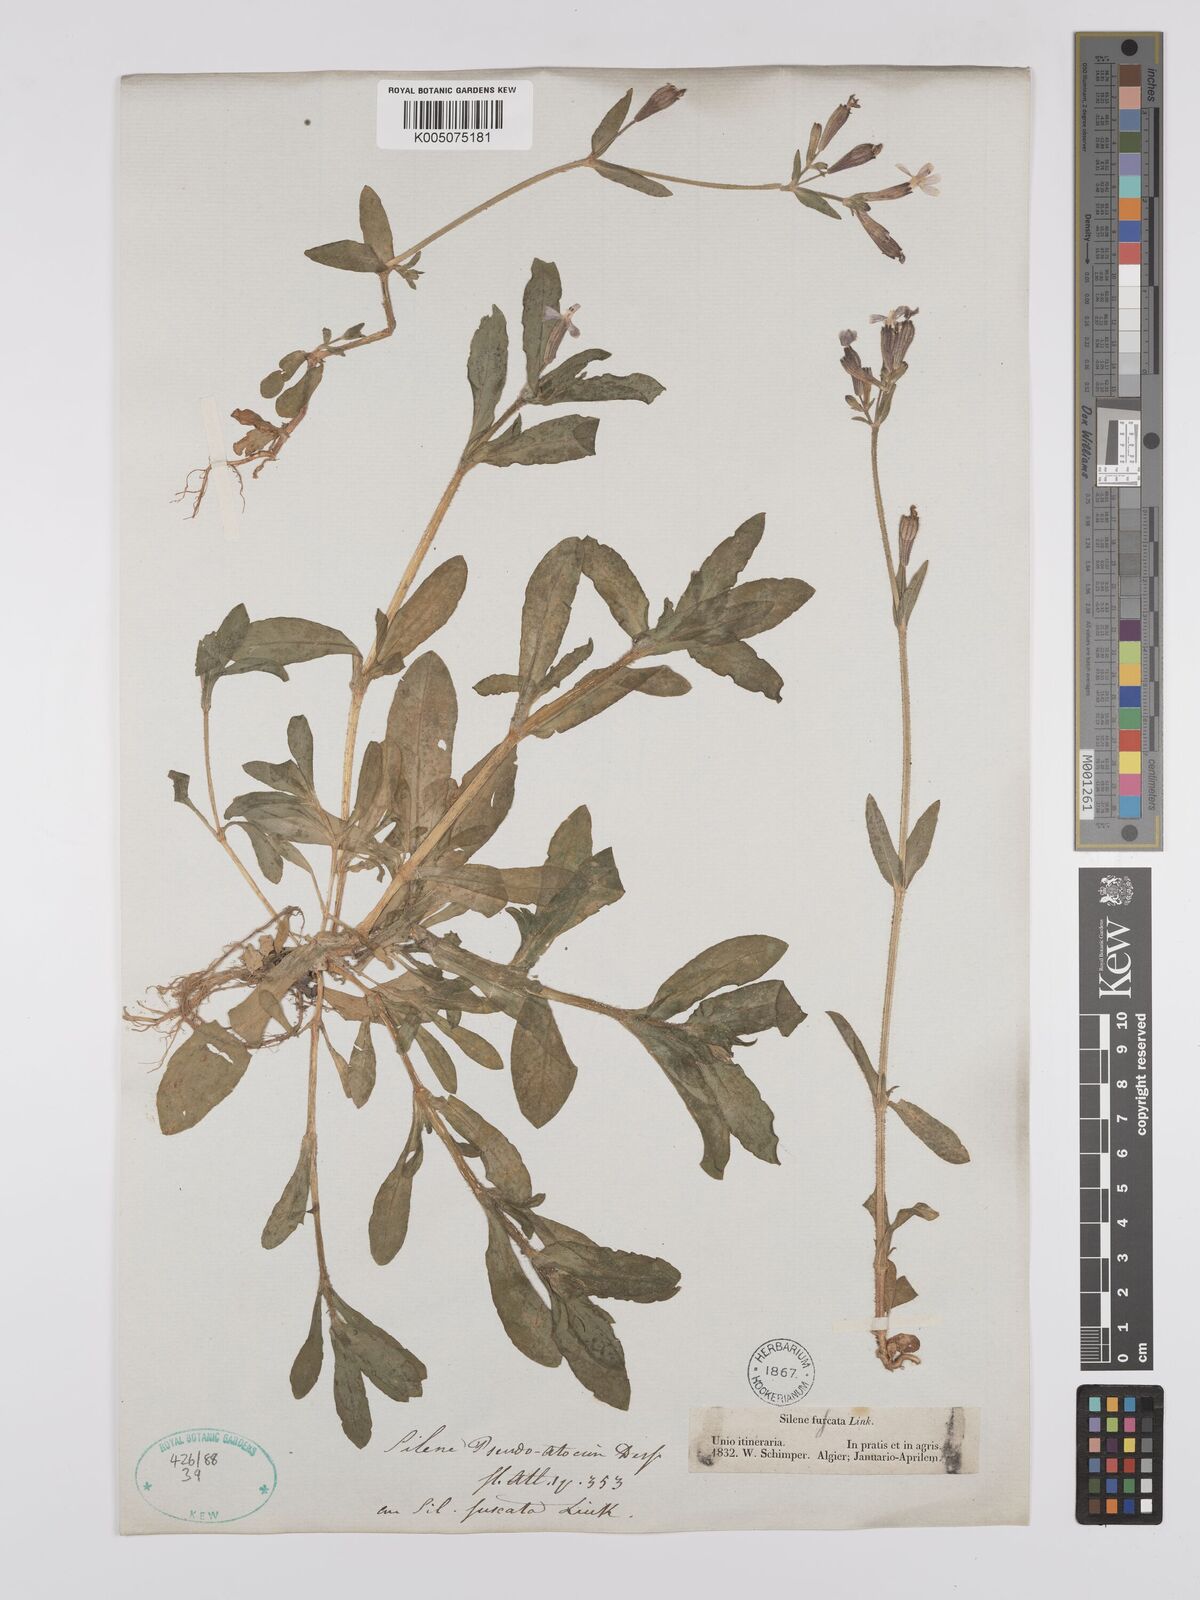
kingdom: Plantae
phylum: Tracheophyta
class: Magnoliopsida
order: Caryophyllales
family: Caryophyllaceae
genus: Silene
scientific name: Silene pseudoatocion
